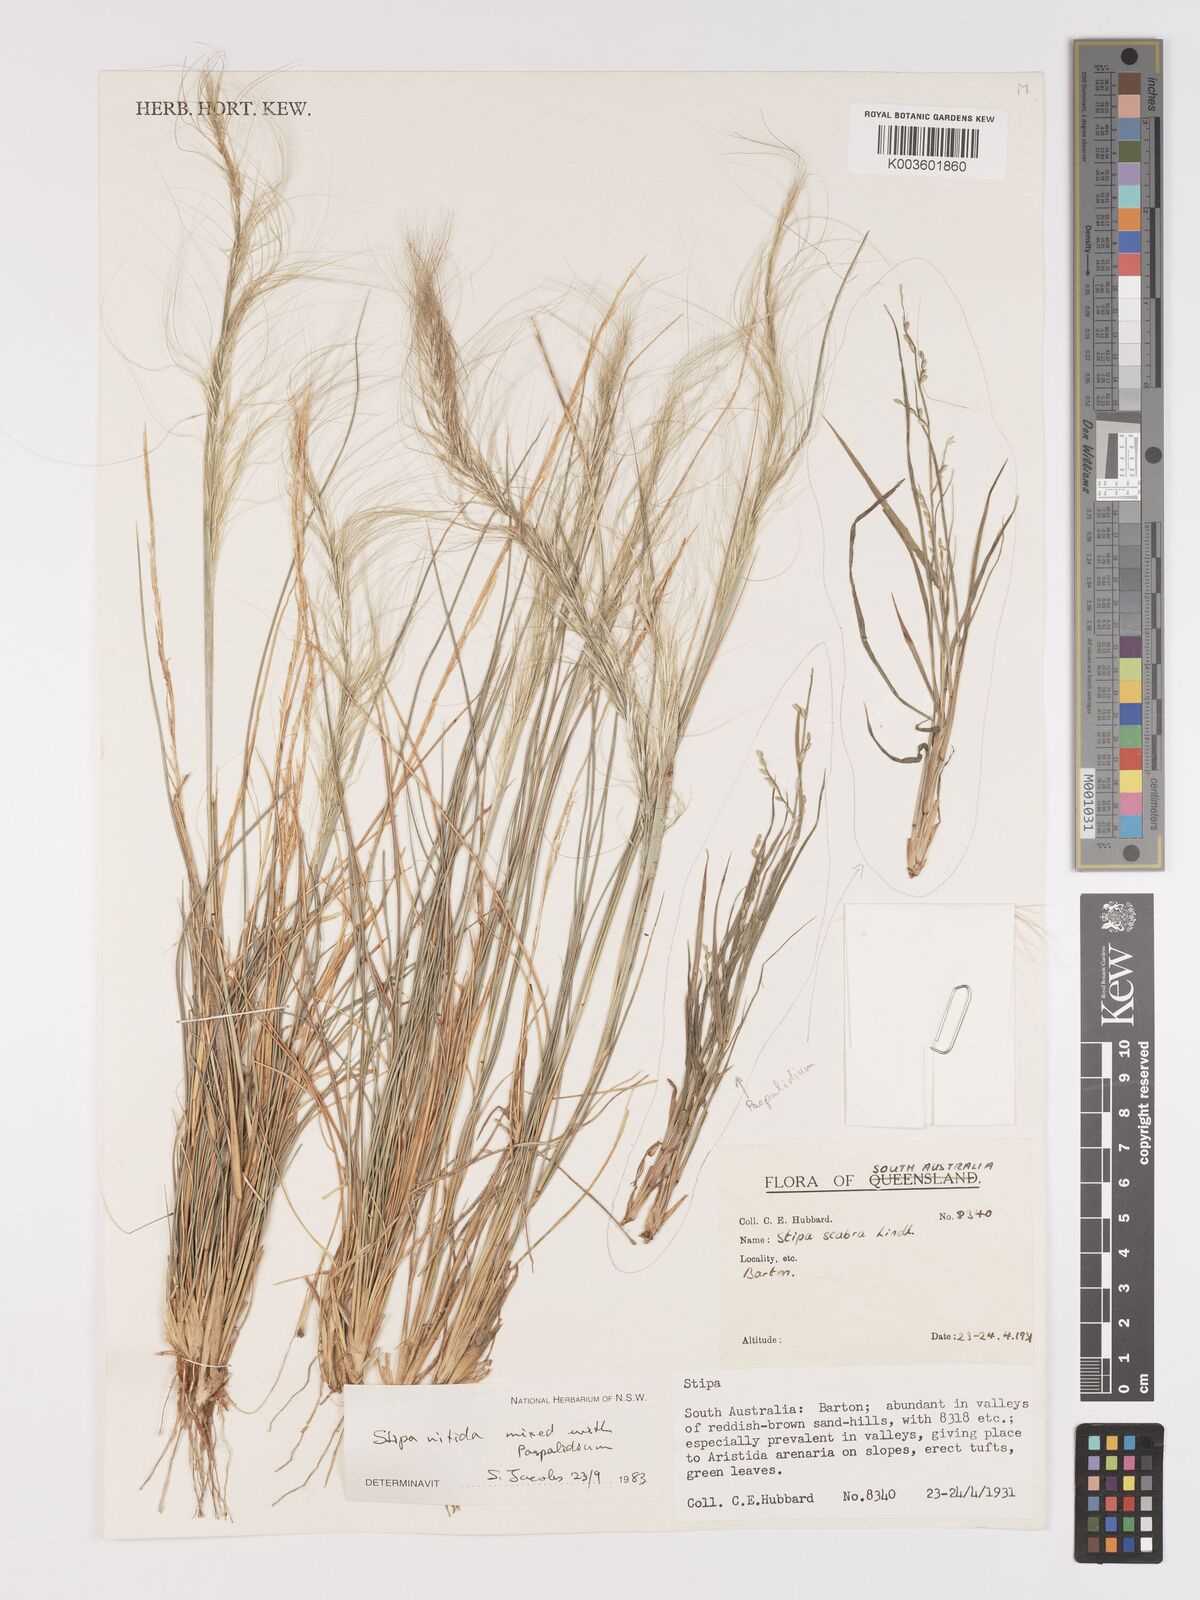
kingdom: Plantae
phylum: Tracheophyta
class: Liliopsida
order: Poales
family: Poaceae
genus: Austrostipa
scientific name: Austrostipa nitida
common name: Balcarra grass
